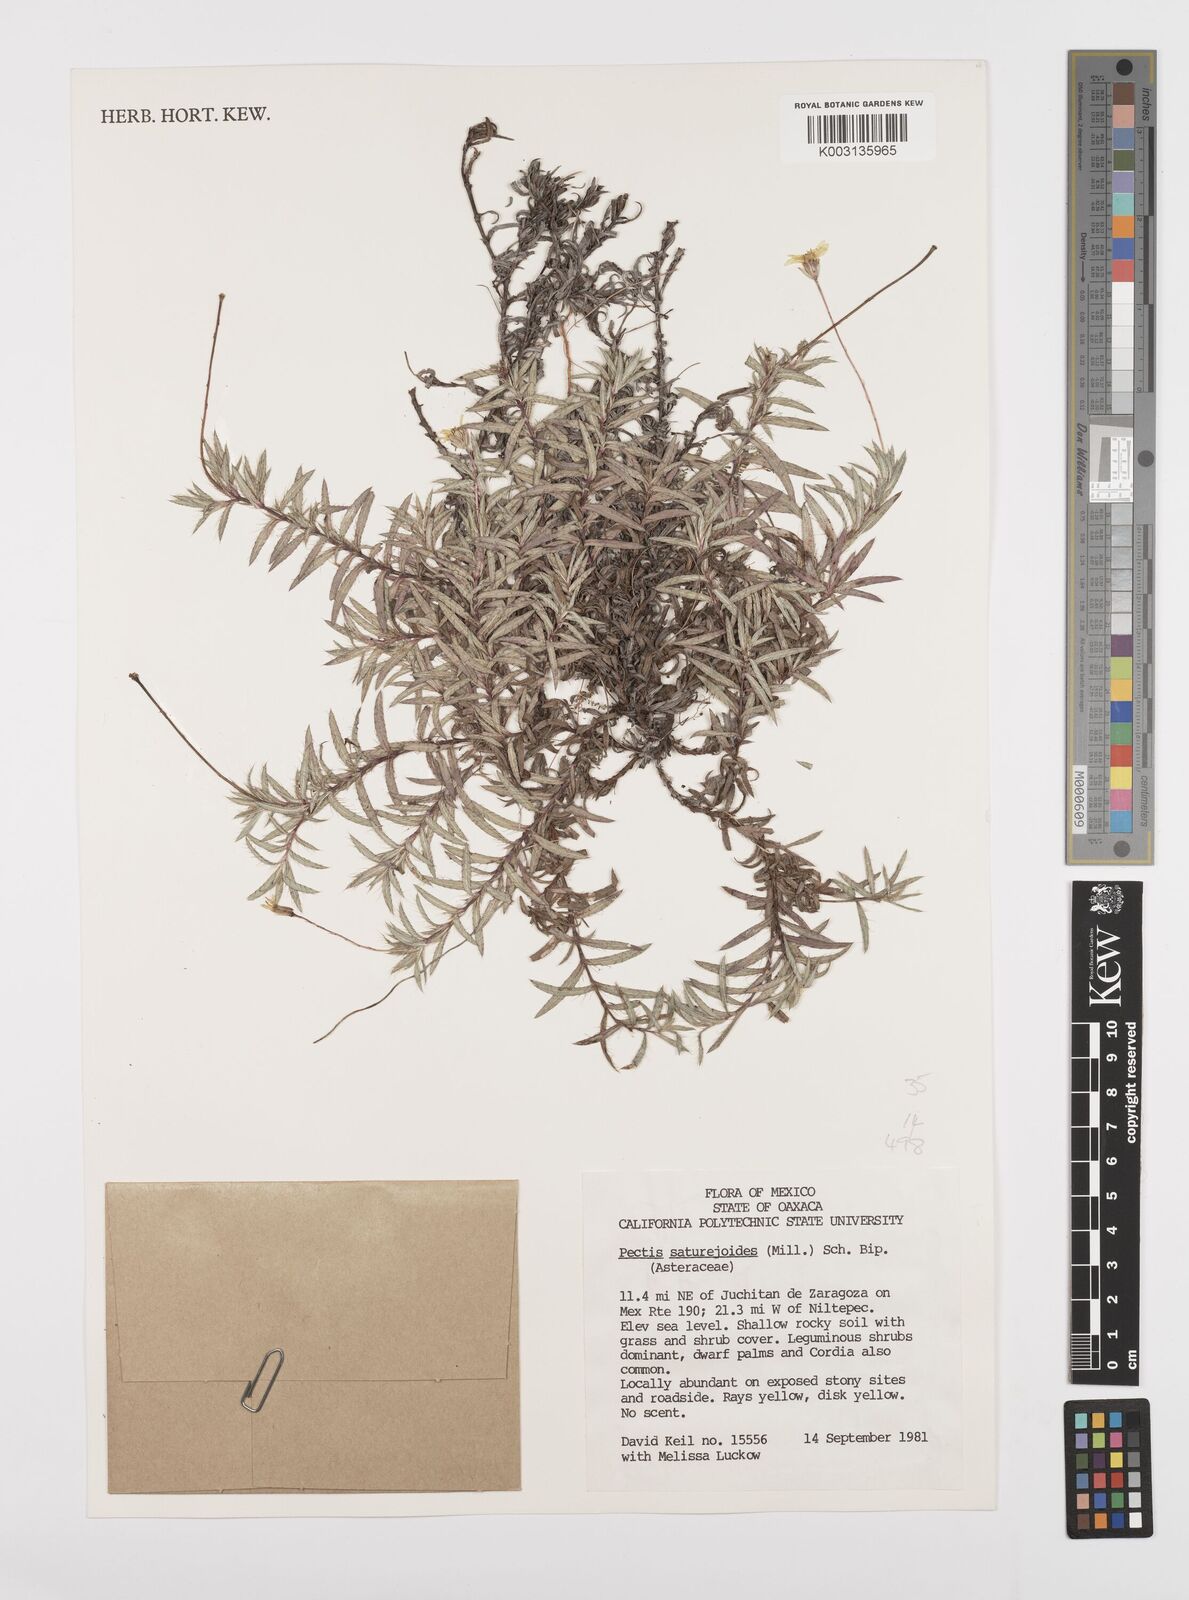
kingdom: Plantae
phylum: Tracheophyta
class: Magnoliopsida
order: Asterales
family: Asteraceae
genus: Pectis
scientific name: Pectis saturejoides
